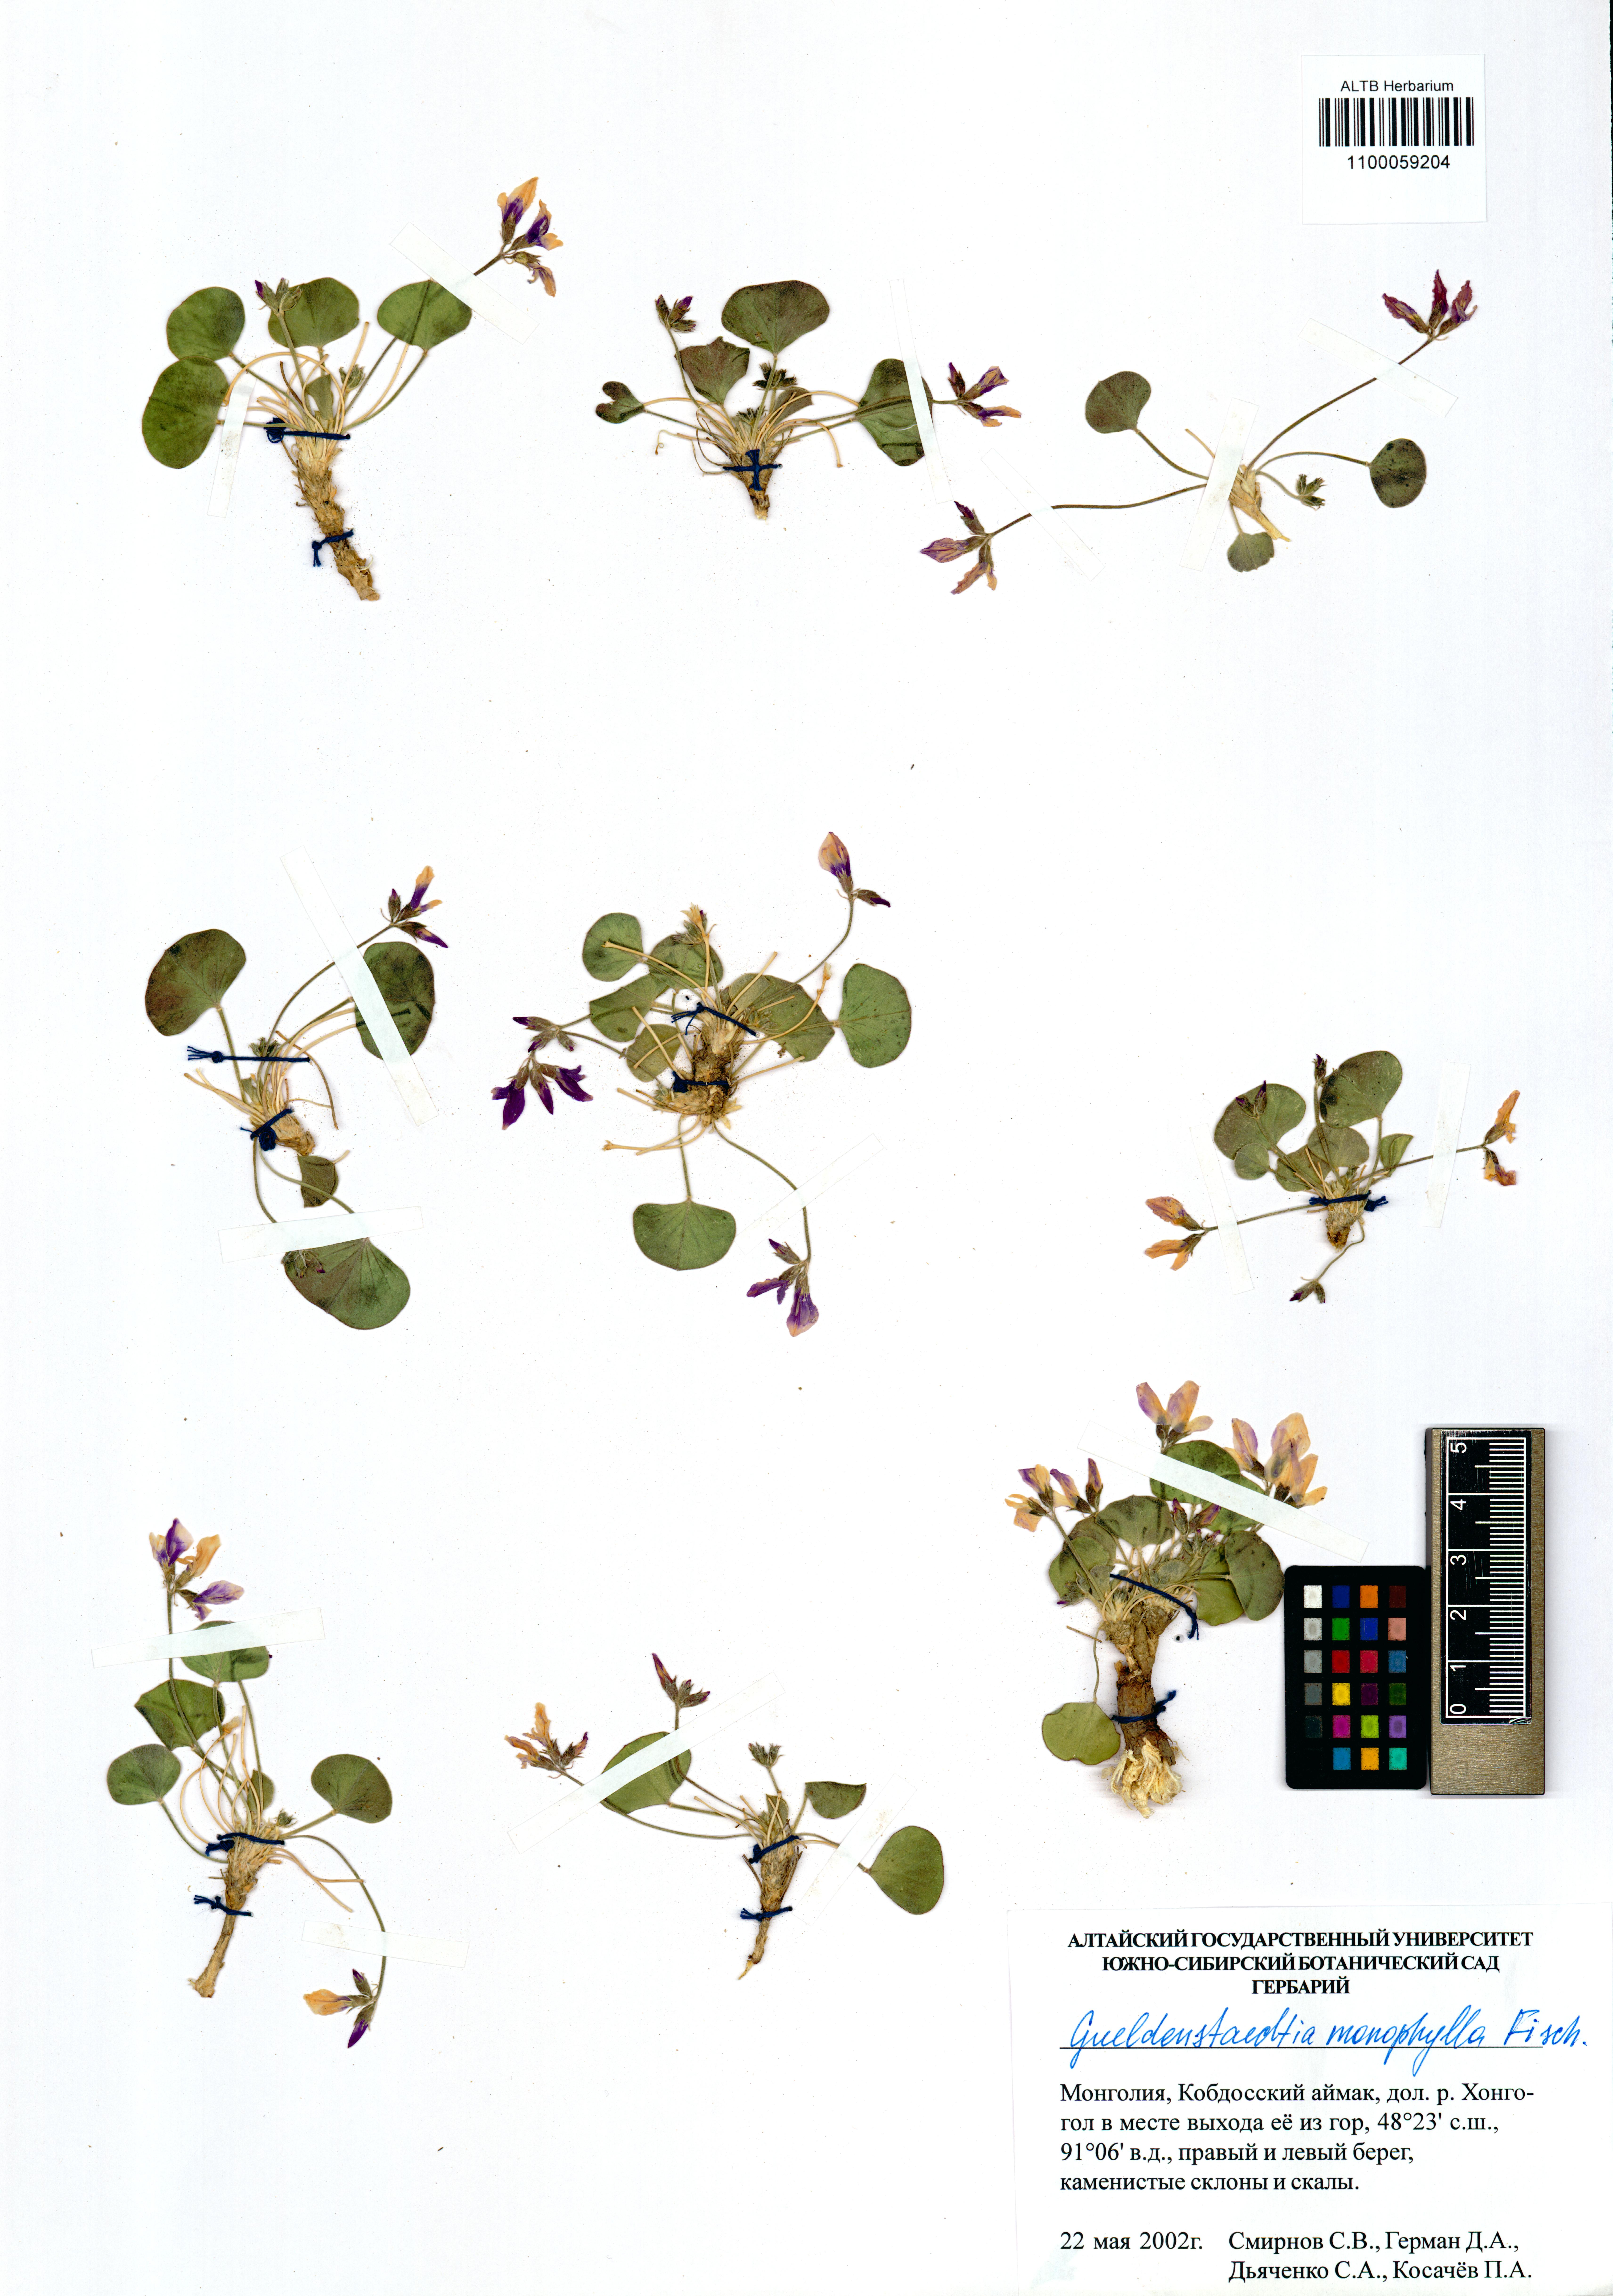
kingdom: Plantae
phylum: Tracheophyta
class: Magnoliopsida
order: Fabales
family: Fabaceae
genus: Gueldenstaedtia
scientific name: Gueldenstaedtia monophylla
